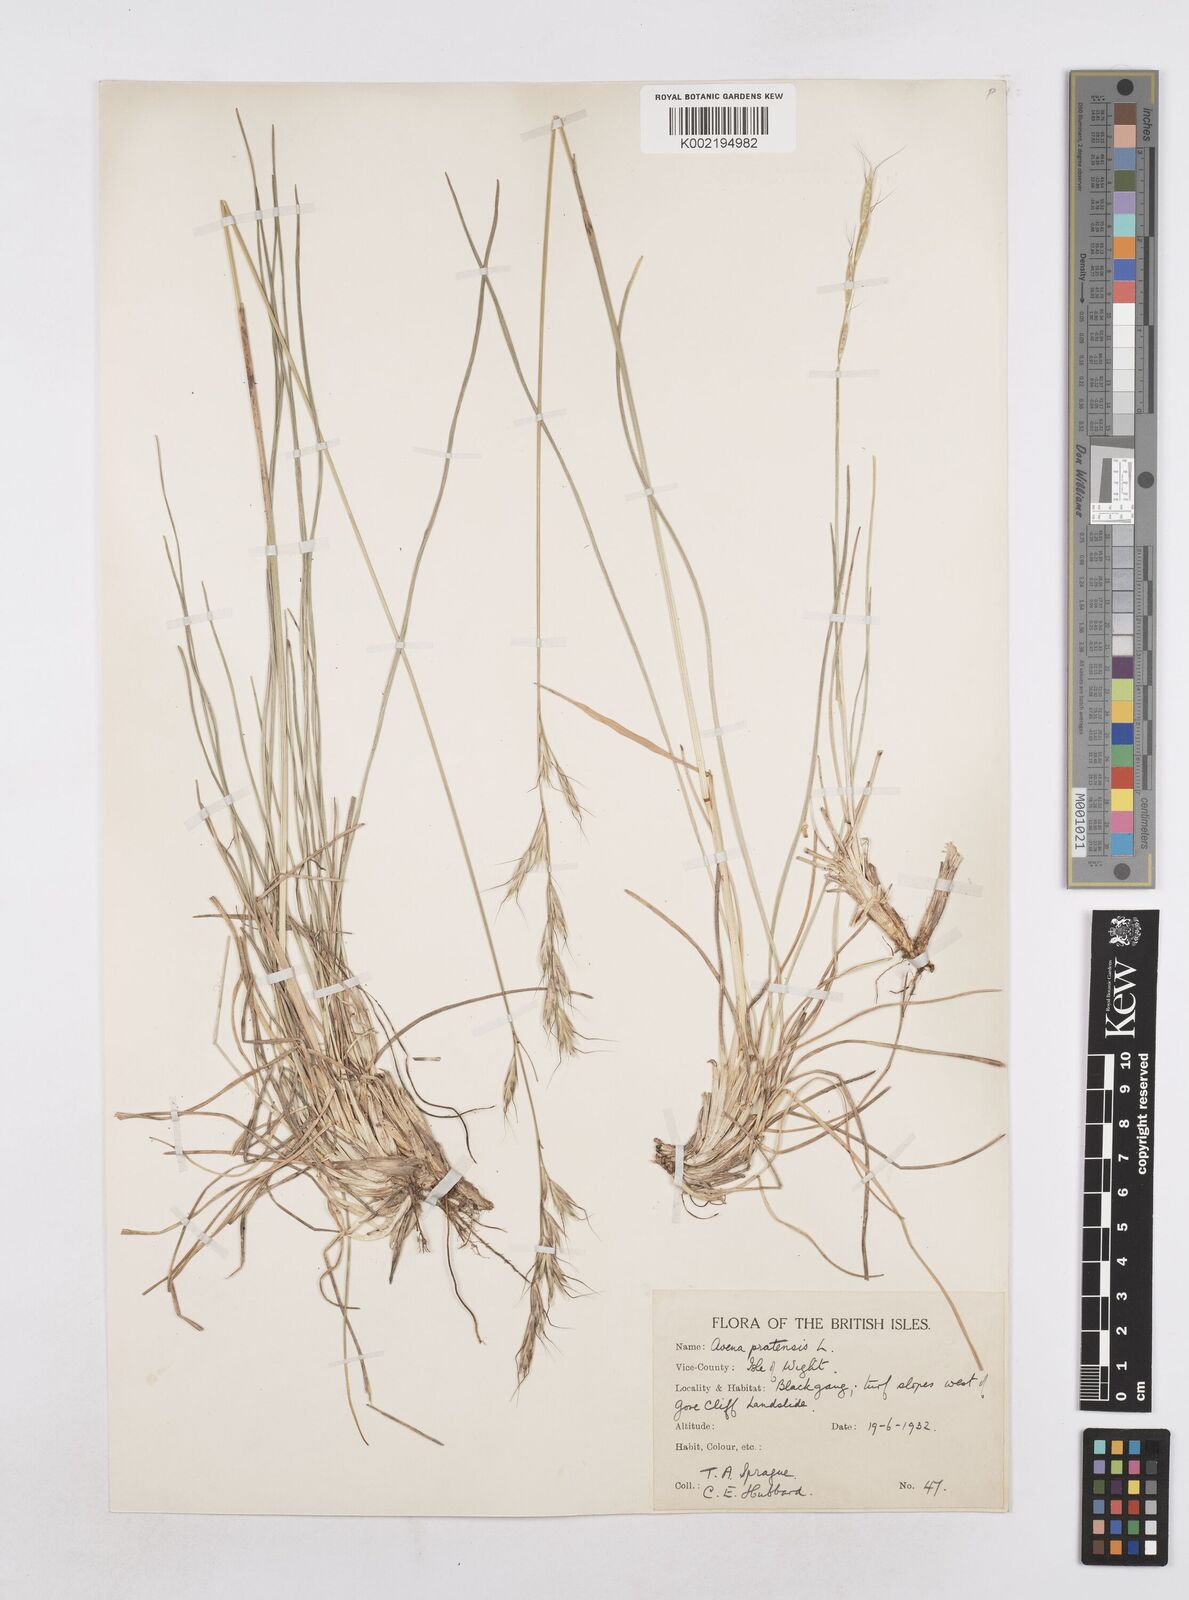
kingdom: Plantae
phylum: Tracheophyta
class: Liliopsida
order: Poales
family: Poaceae
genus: Helictochloa
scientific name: Helictochloa pratensis
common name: Meadow oat grass
